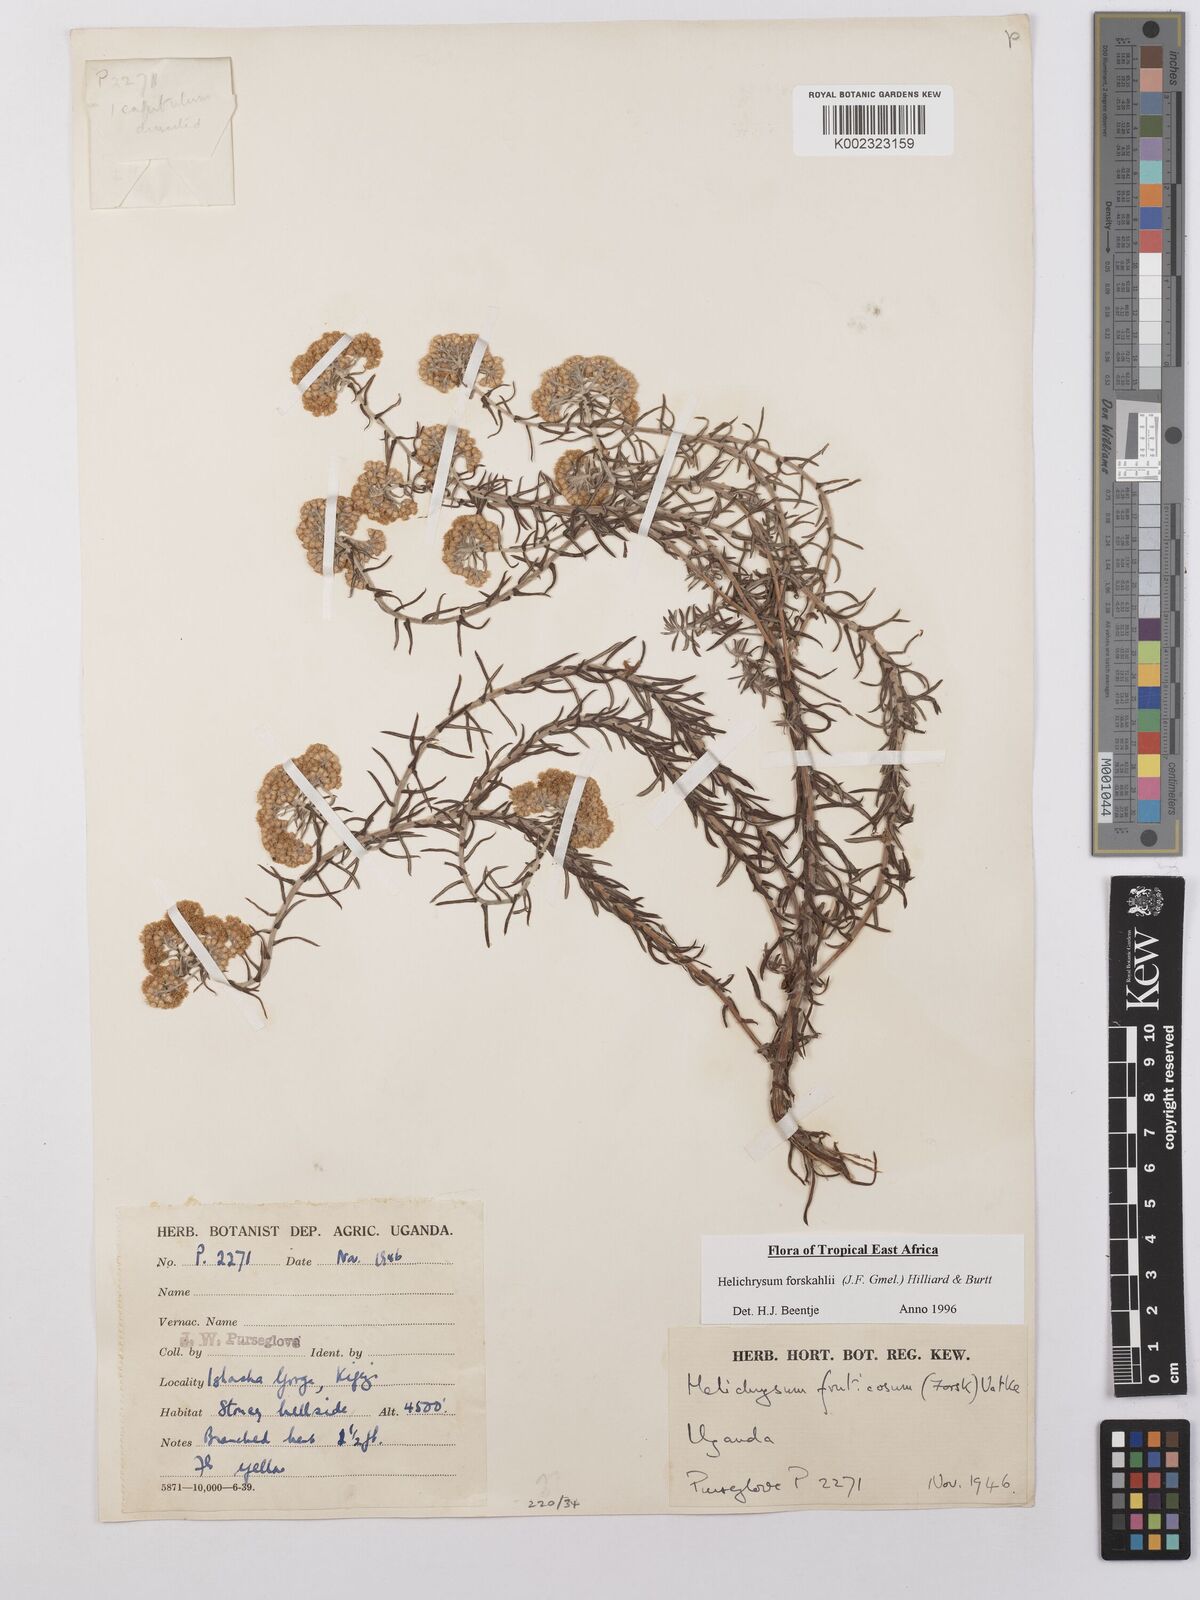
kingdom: Plantae
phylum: Tracheophyta
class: Magnoliopsida
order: Asterales
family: Asteraceae
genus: Helichrysum
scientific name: Helichrysum forskahlii
